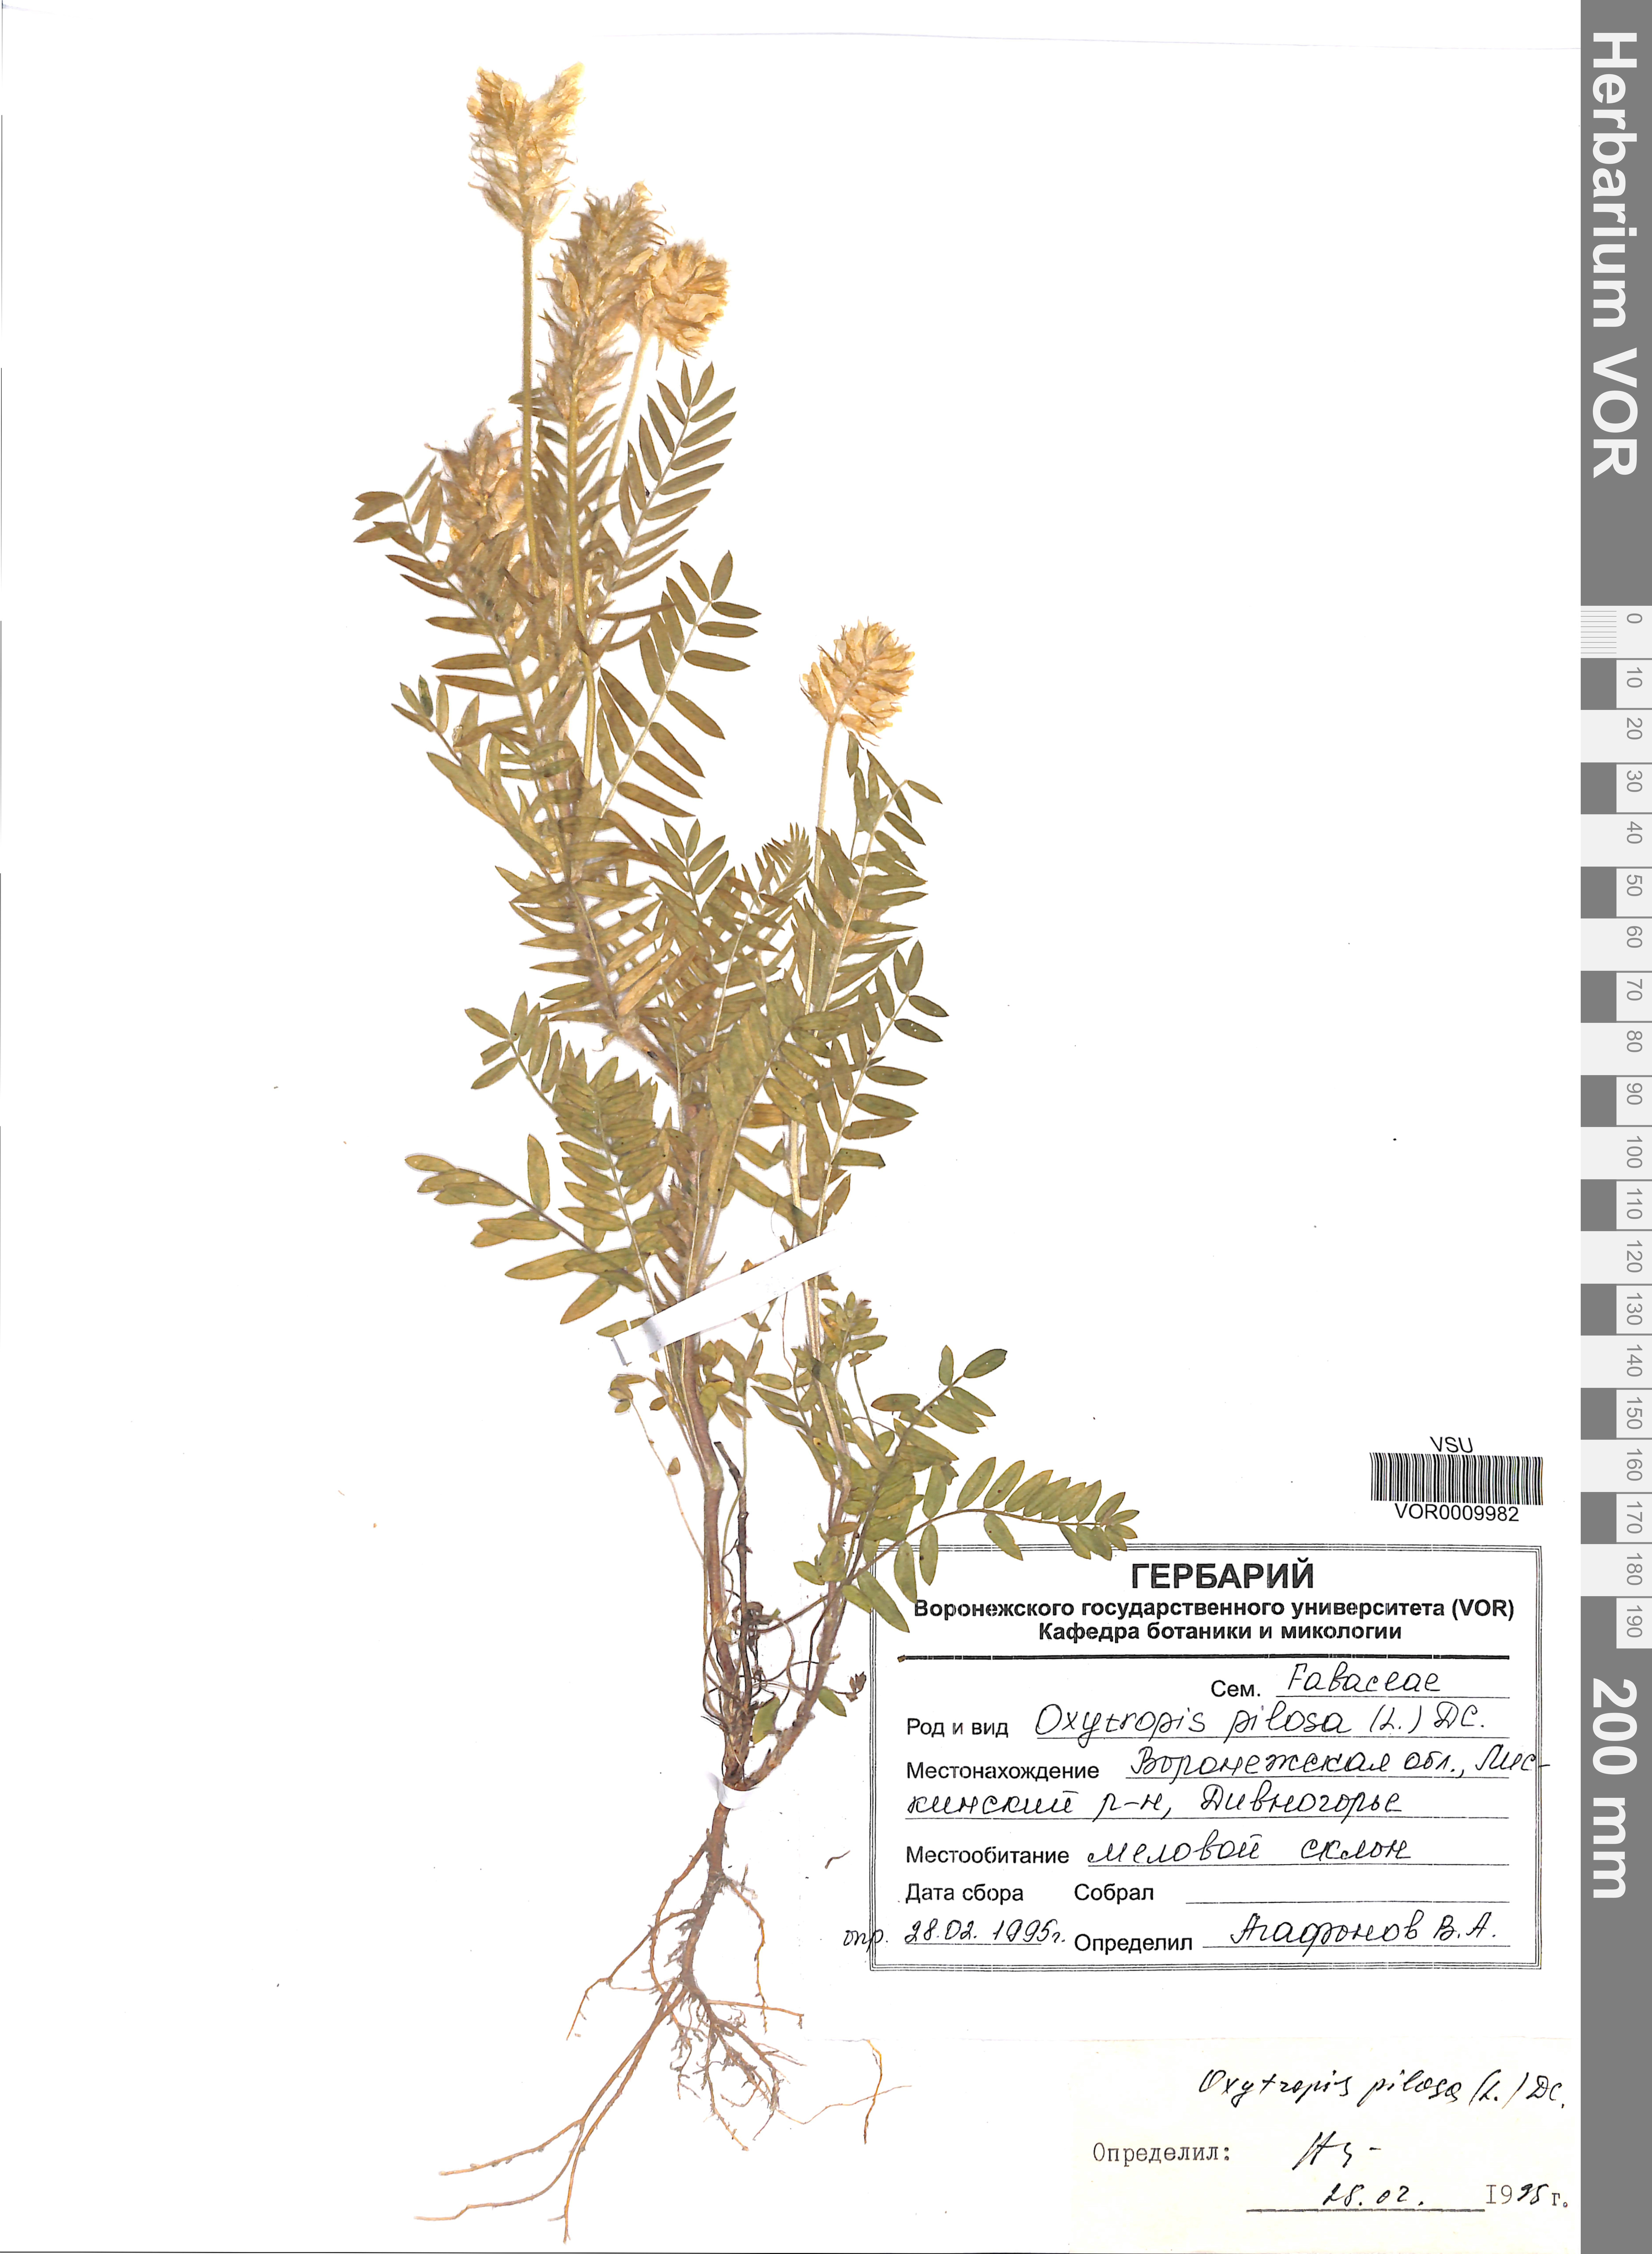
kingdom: Plantae
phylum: Tracheophyta
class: Magnoliopsida
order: Fabales
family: Fabaceae
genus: Oxytropis
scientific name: Oxytropis pilosa
